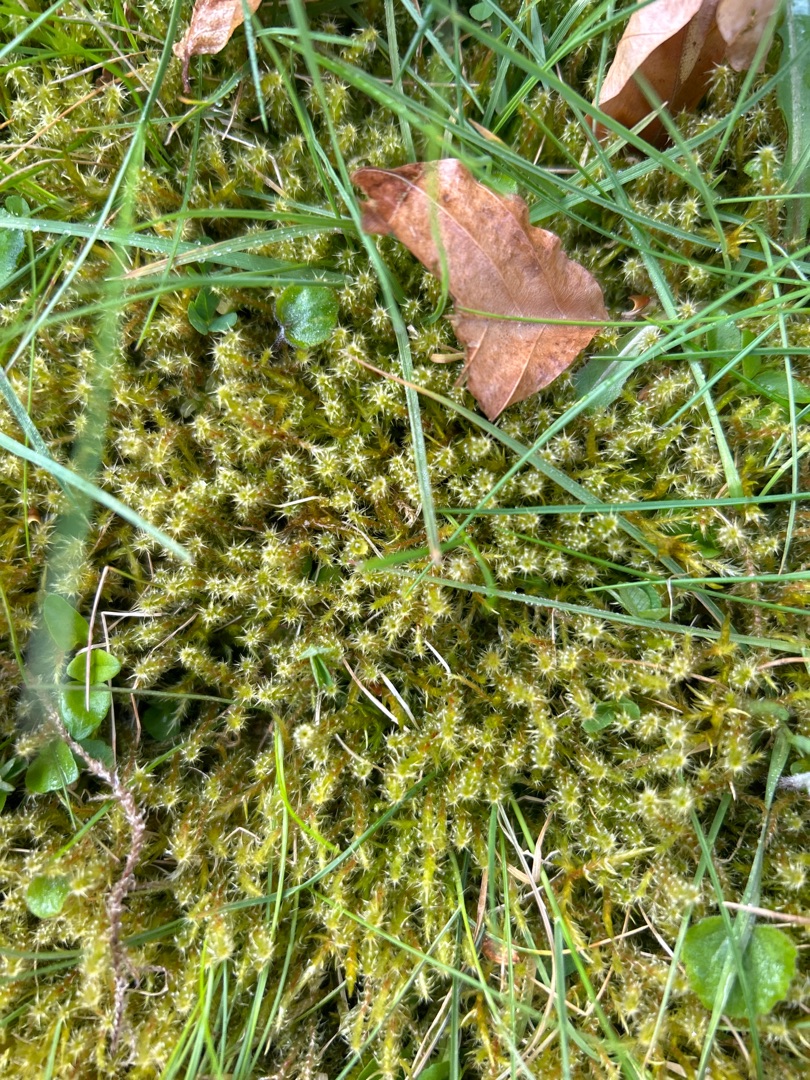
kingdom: Plantae
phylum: Bryophyta
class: Bryopsida
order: Hypnales
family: Hylocomiaceae
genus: Rhytidiadelphus
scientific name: Rhytidiadelphus squarrosus
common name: Plæne-kransemos
